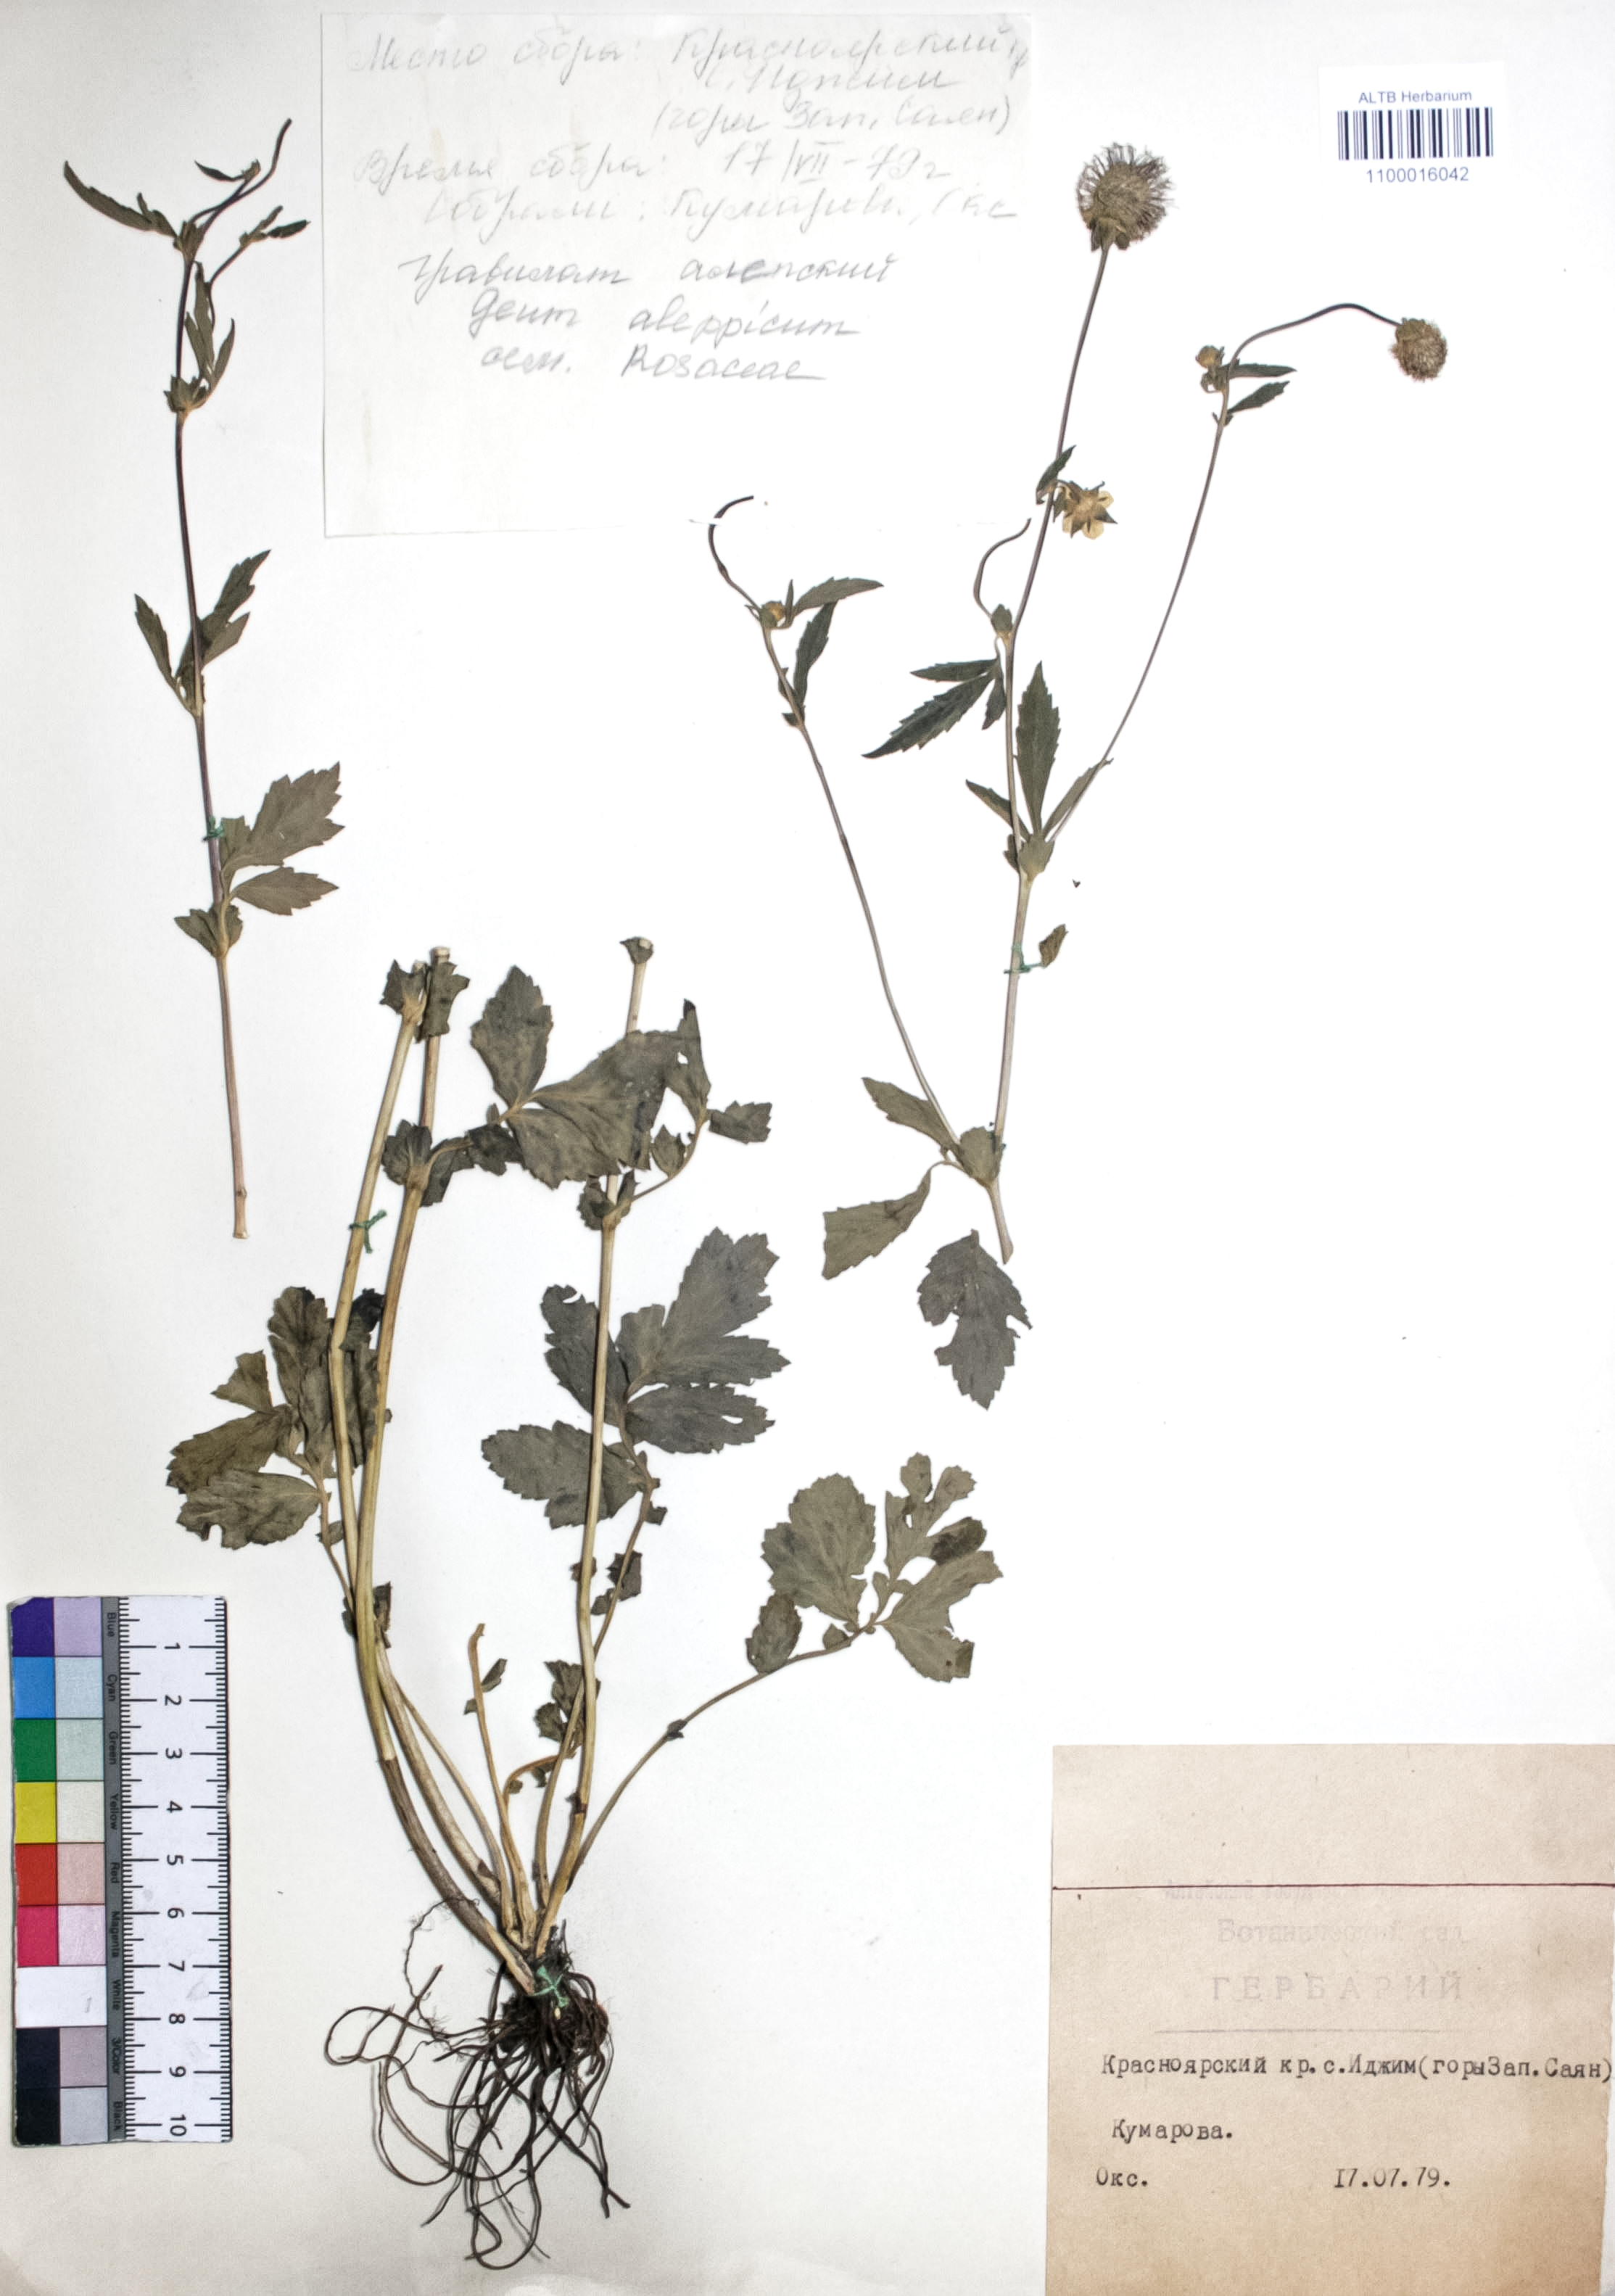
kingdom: Plantae
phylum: Tracheophyta
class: Magnoliopsida
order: Rosales
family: Rosaceae
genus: Geum
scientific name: Geum aleppicum
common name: Yellow avens
